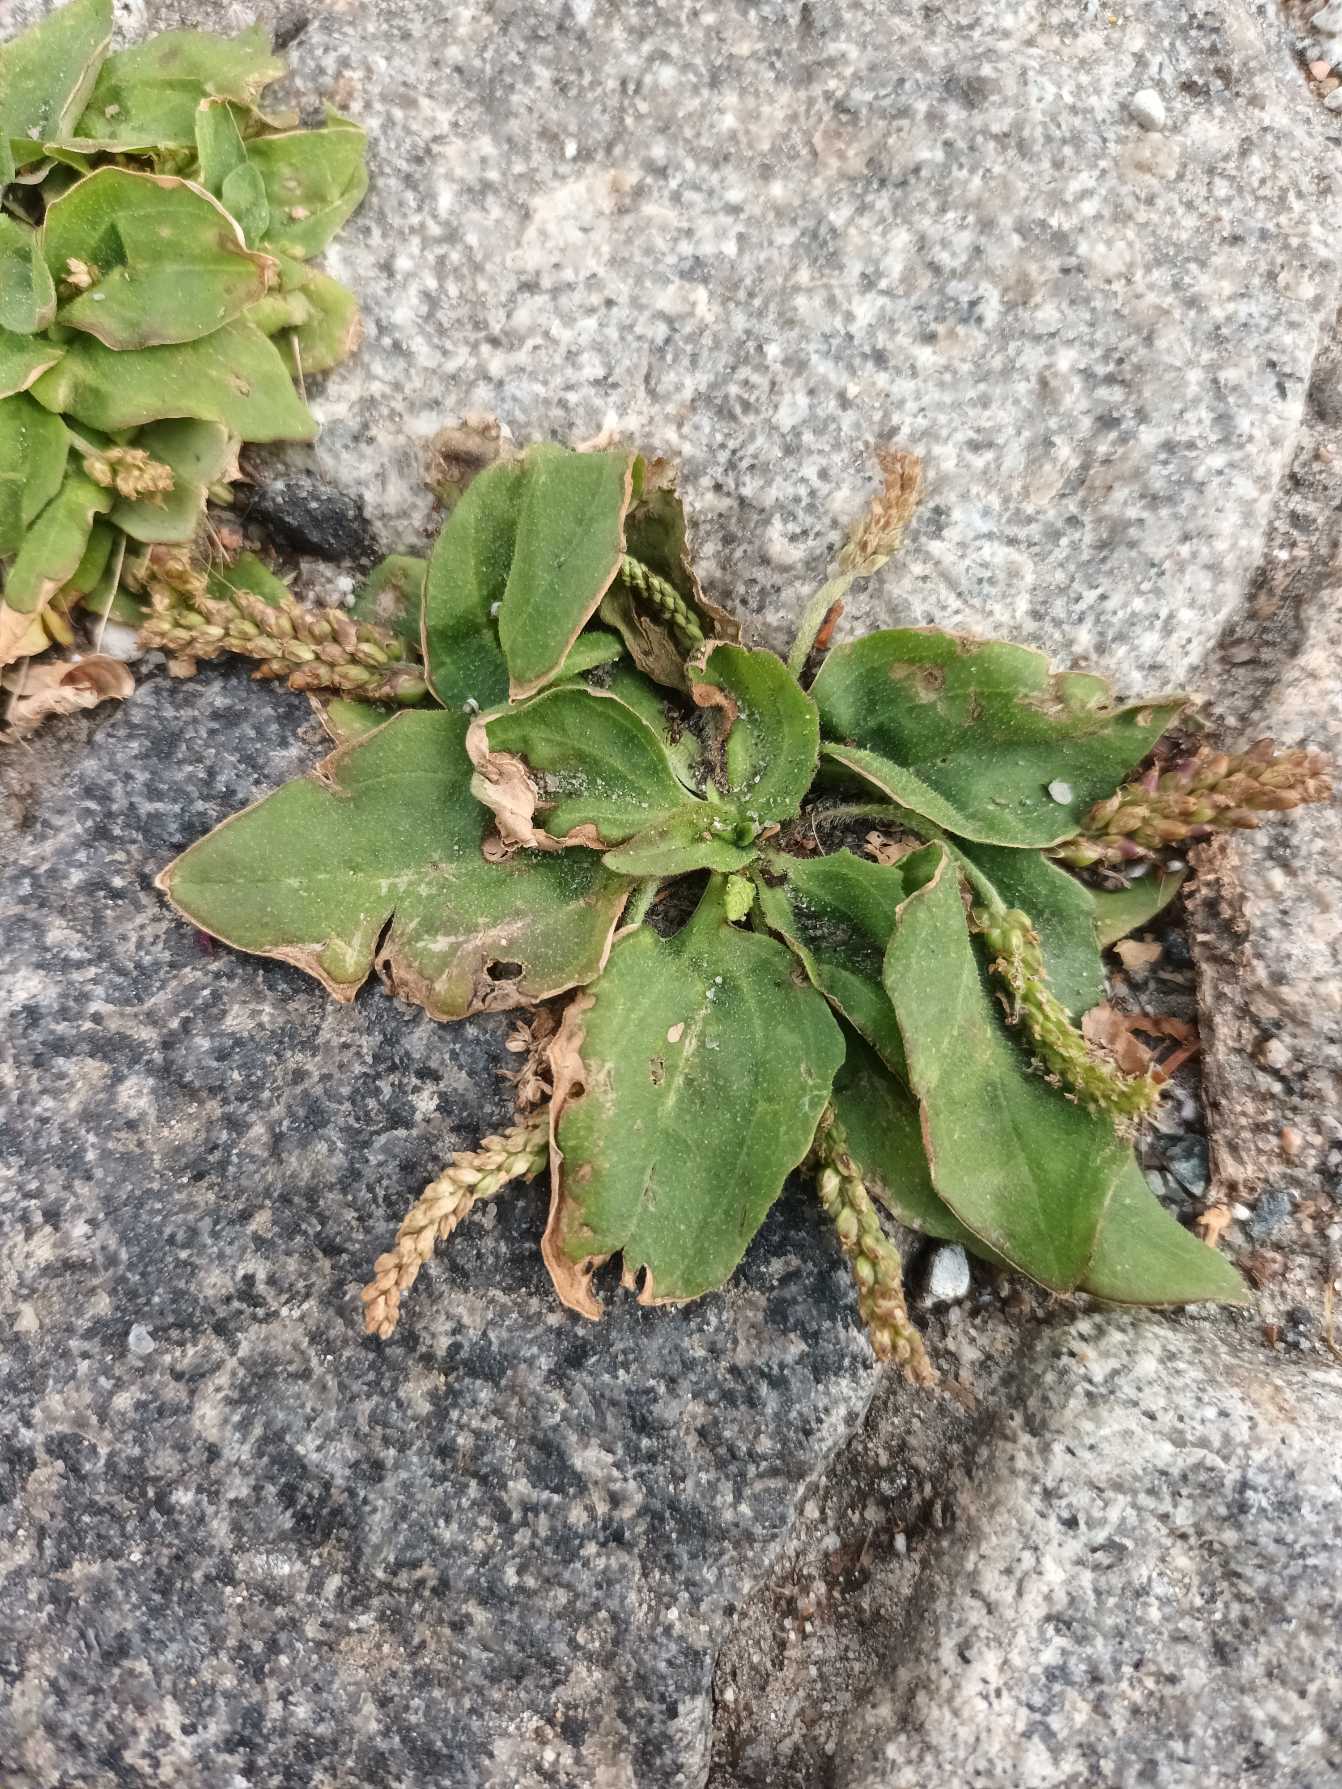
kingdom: Plantae
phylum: Tracheophyta
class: Magnoliopsida
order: Lamiales
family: Plantaginaceae
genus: Plantago
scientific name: Plantago major
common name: Glat vejbred
